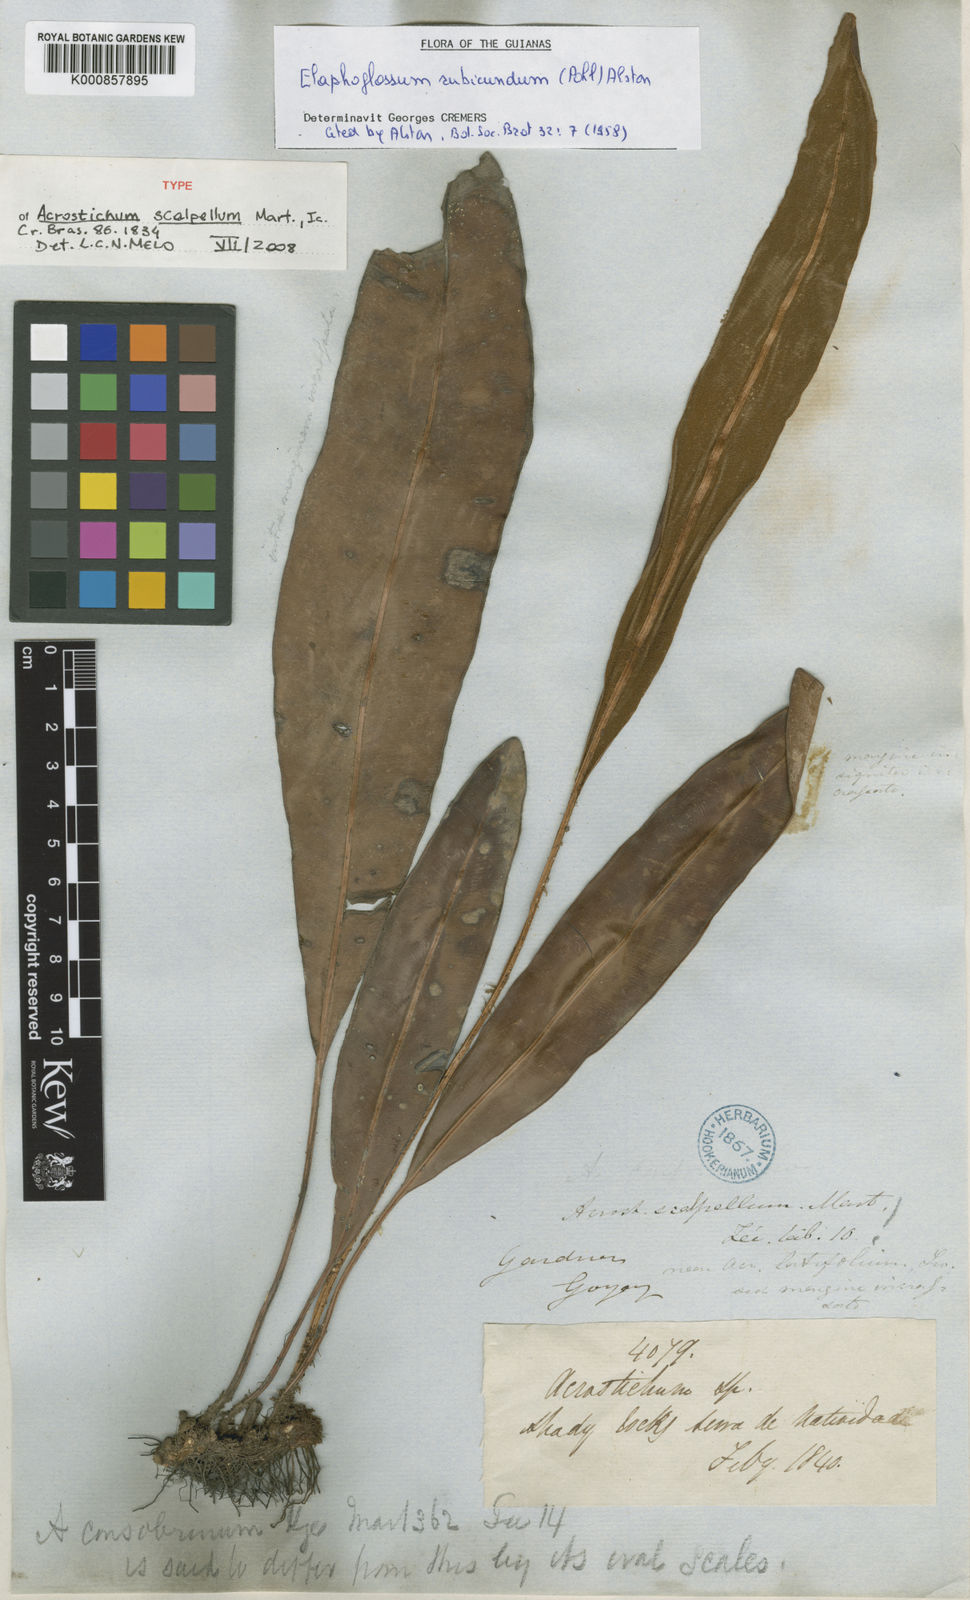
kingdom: Plantae
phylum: Tracheophyta
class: Polypodiopsida
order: Polypodiales
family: Dryopteridaceae
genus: Elaphoglossum
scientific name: Elaphoglossum sartorii
